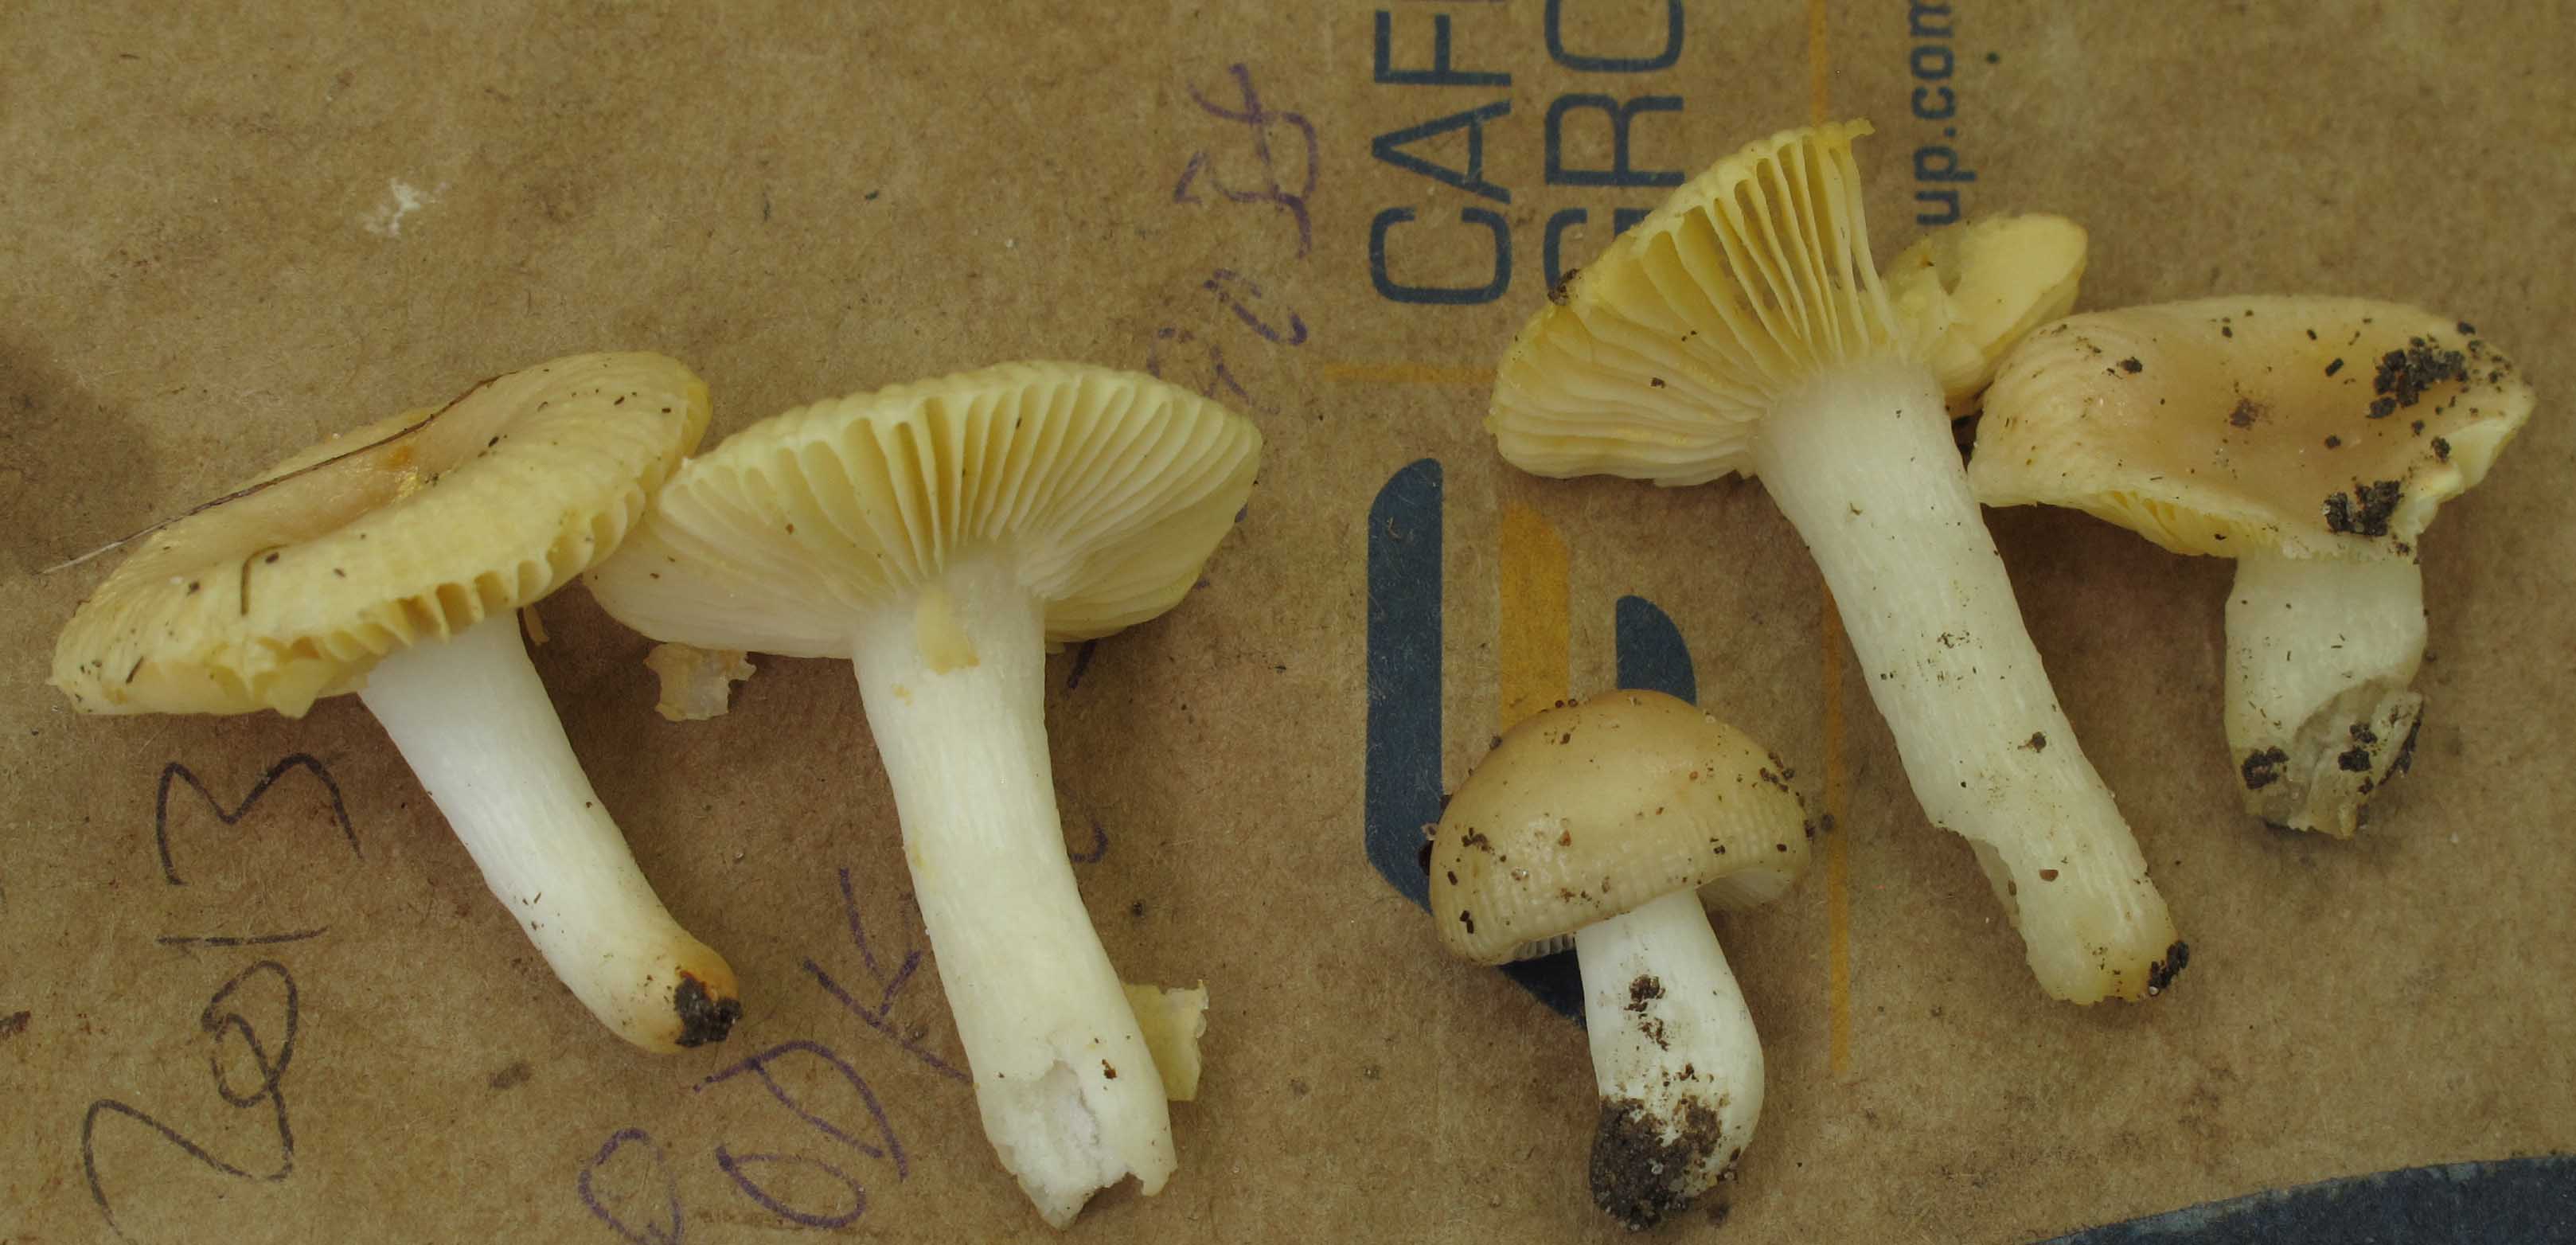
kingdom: Fungi
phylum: Basidiomycota
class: Agaricomycetes
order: Russulales
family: Russulaceae
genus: Russula
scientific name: Russula odorata
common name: duft-skørhat
